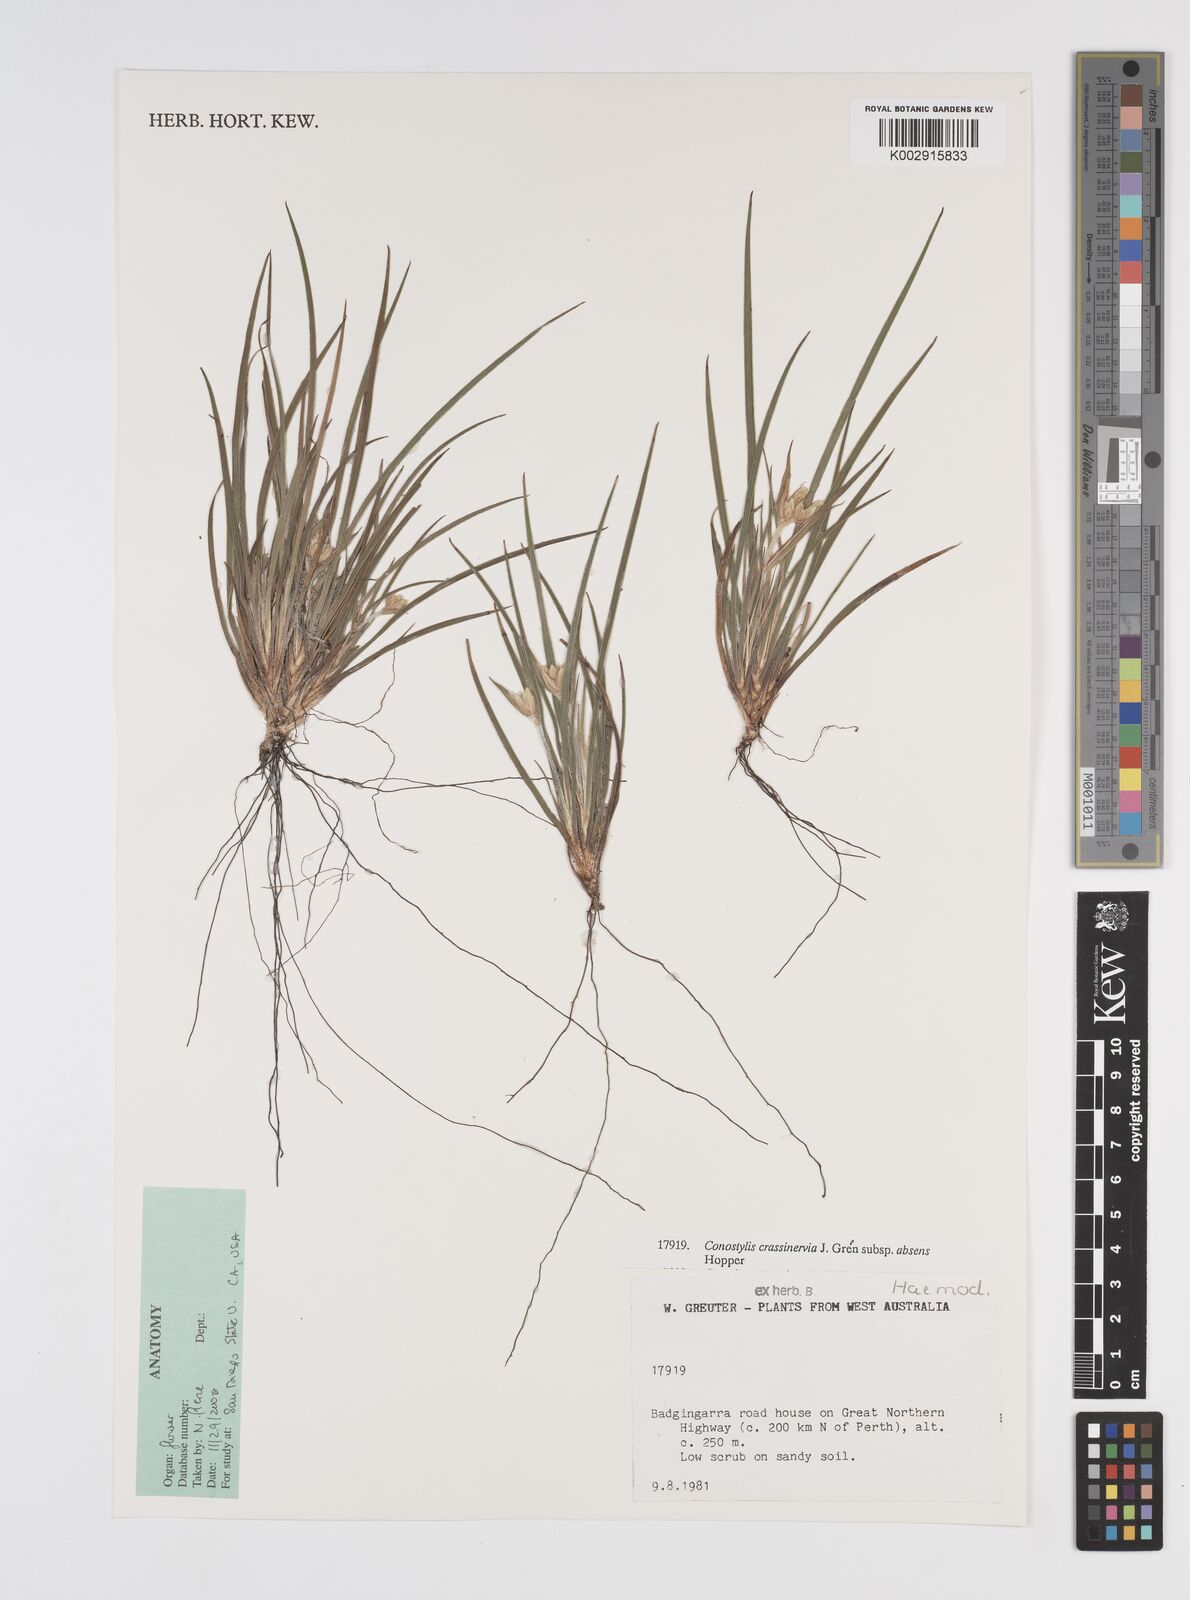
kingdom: Plantae
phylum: Tracheophyta
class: Liliopsida
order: Commelinales
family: Haemodoraceae
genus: Conostylis
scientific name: Conostylis crassinerva
